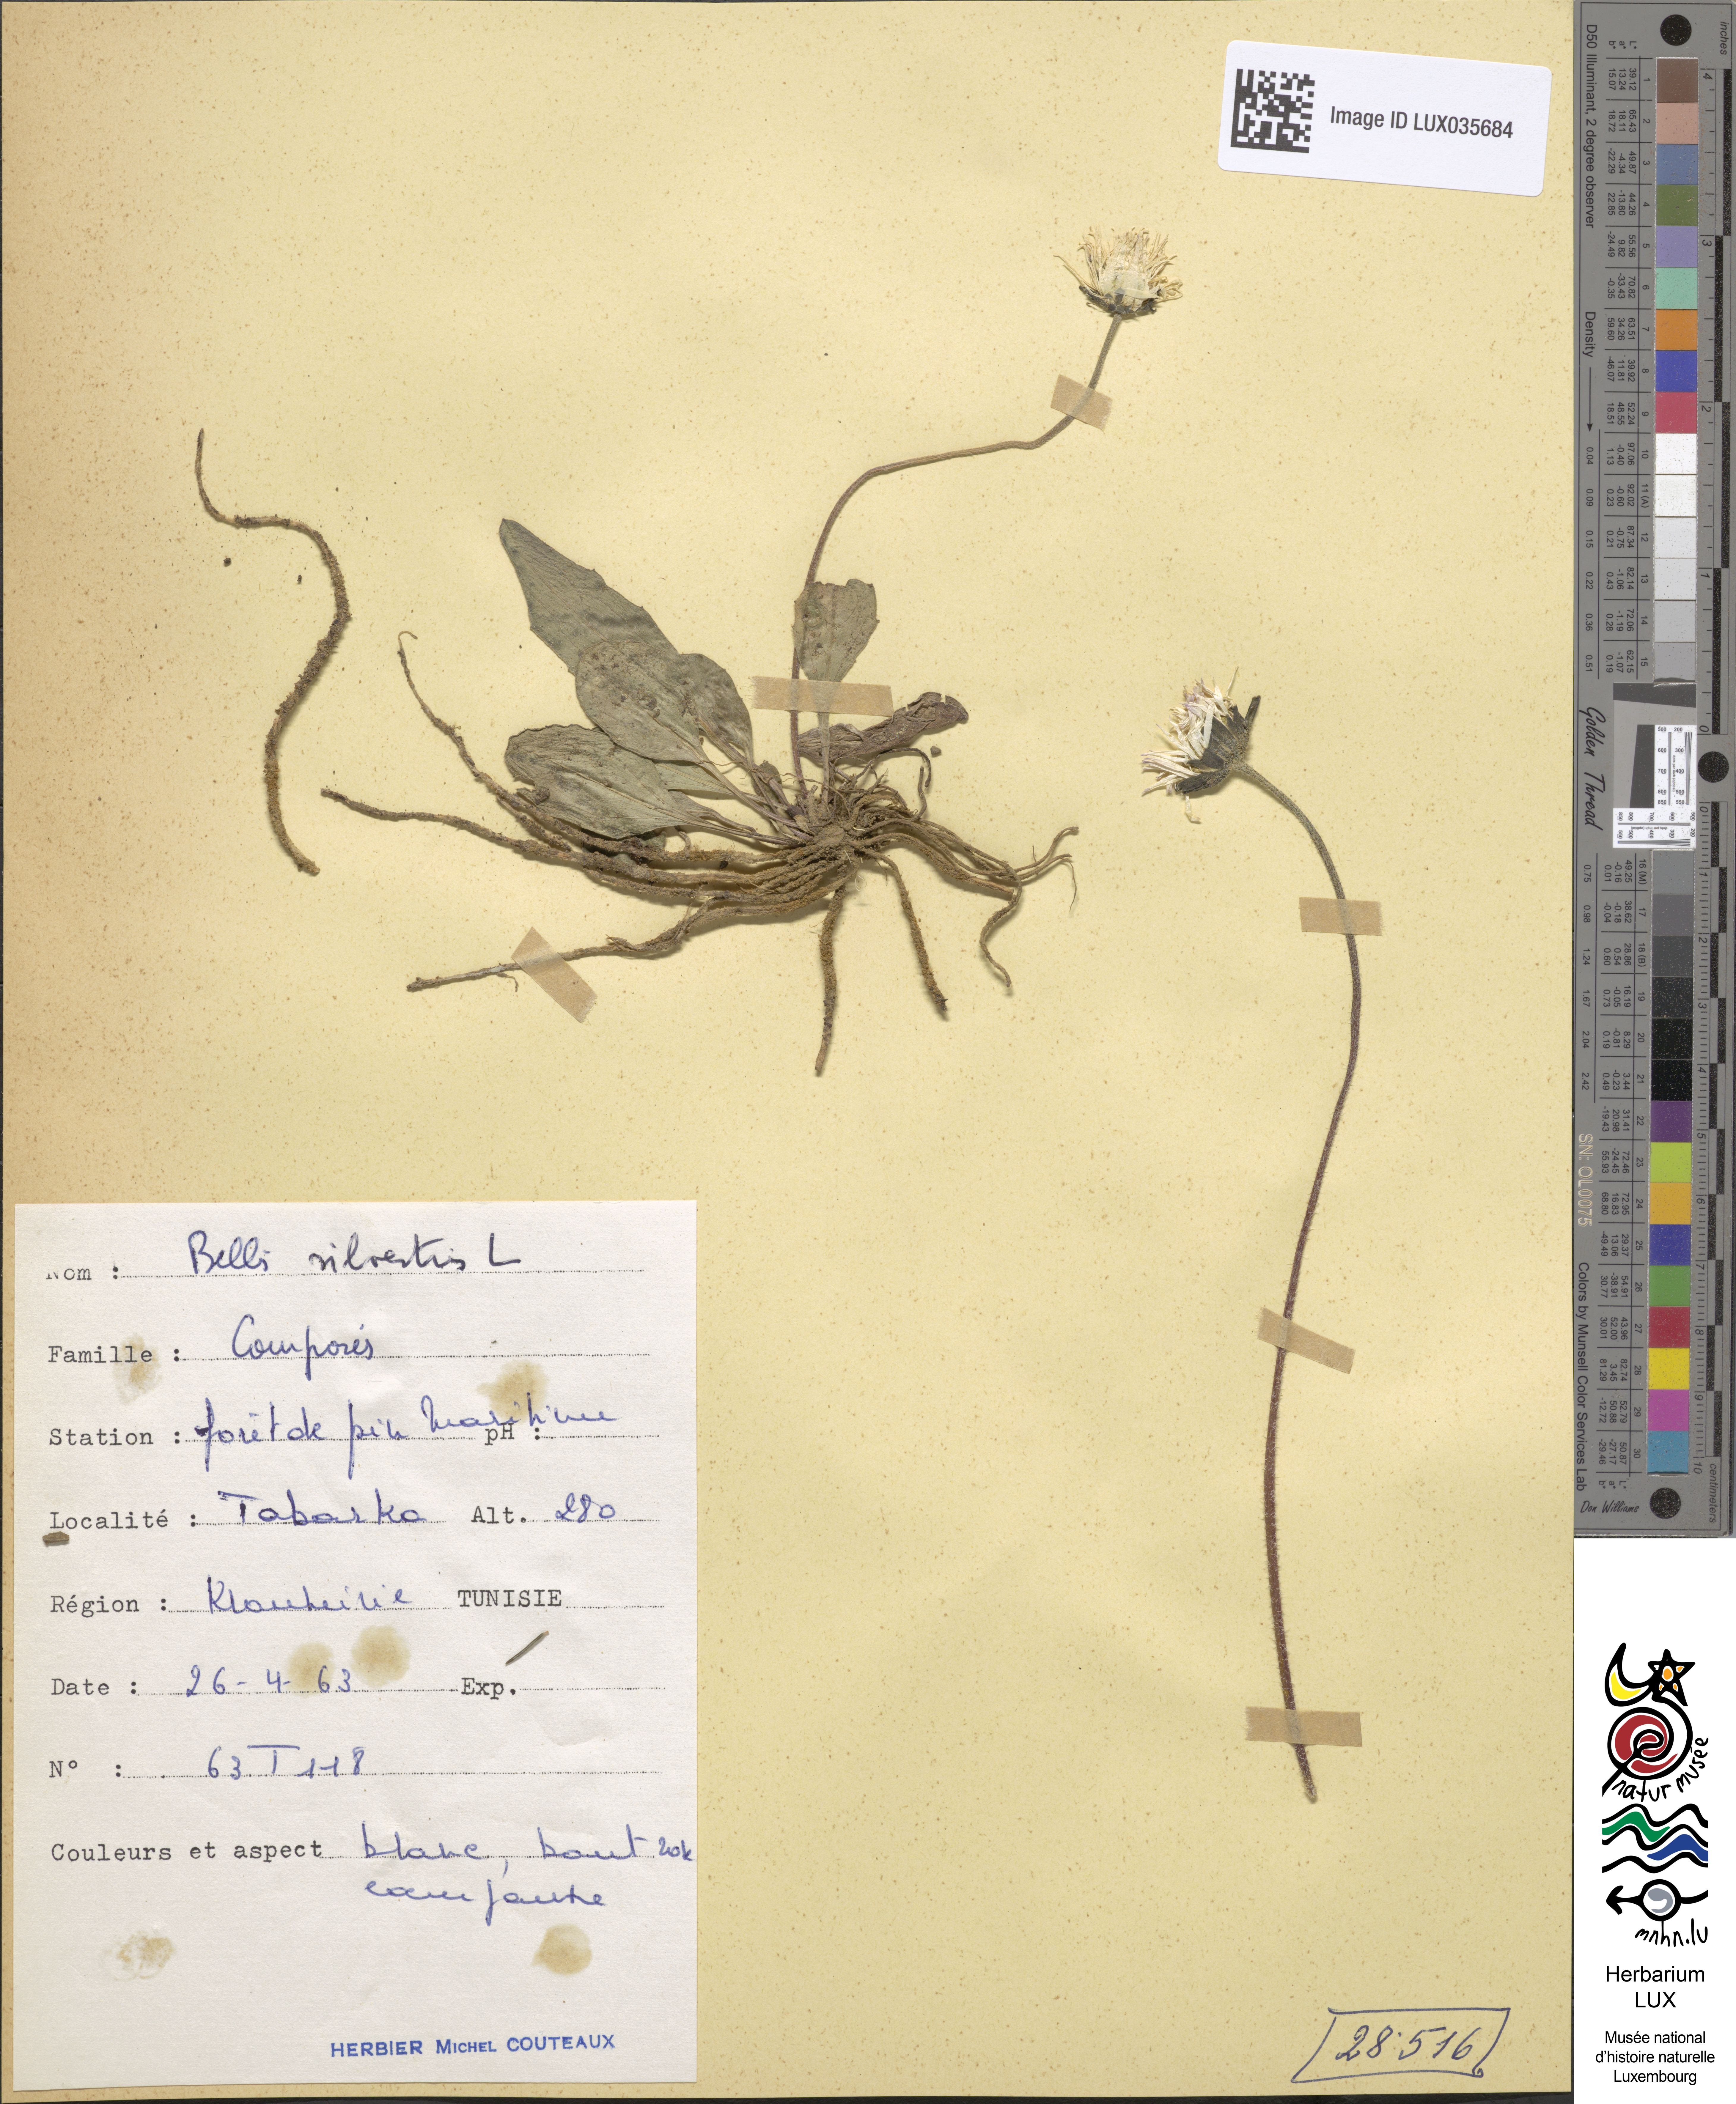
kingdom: Plantae
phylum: Tracheophyta
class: Magnoliopsida
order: Asterales
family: Asteraceae
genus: Bellis
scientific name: Bellis sylvestris
